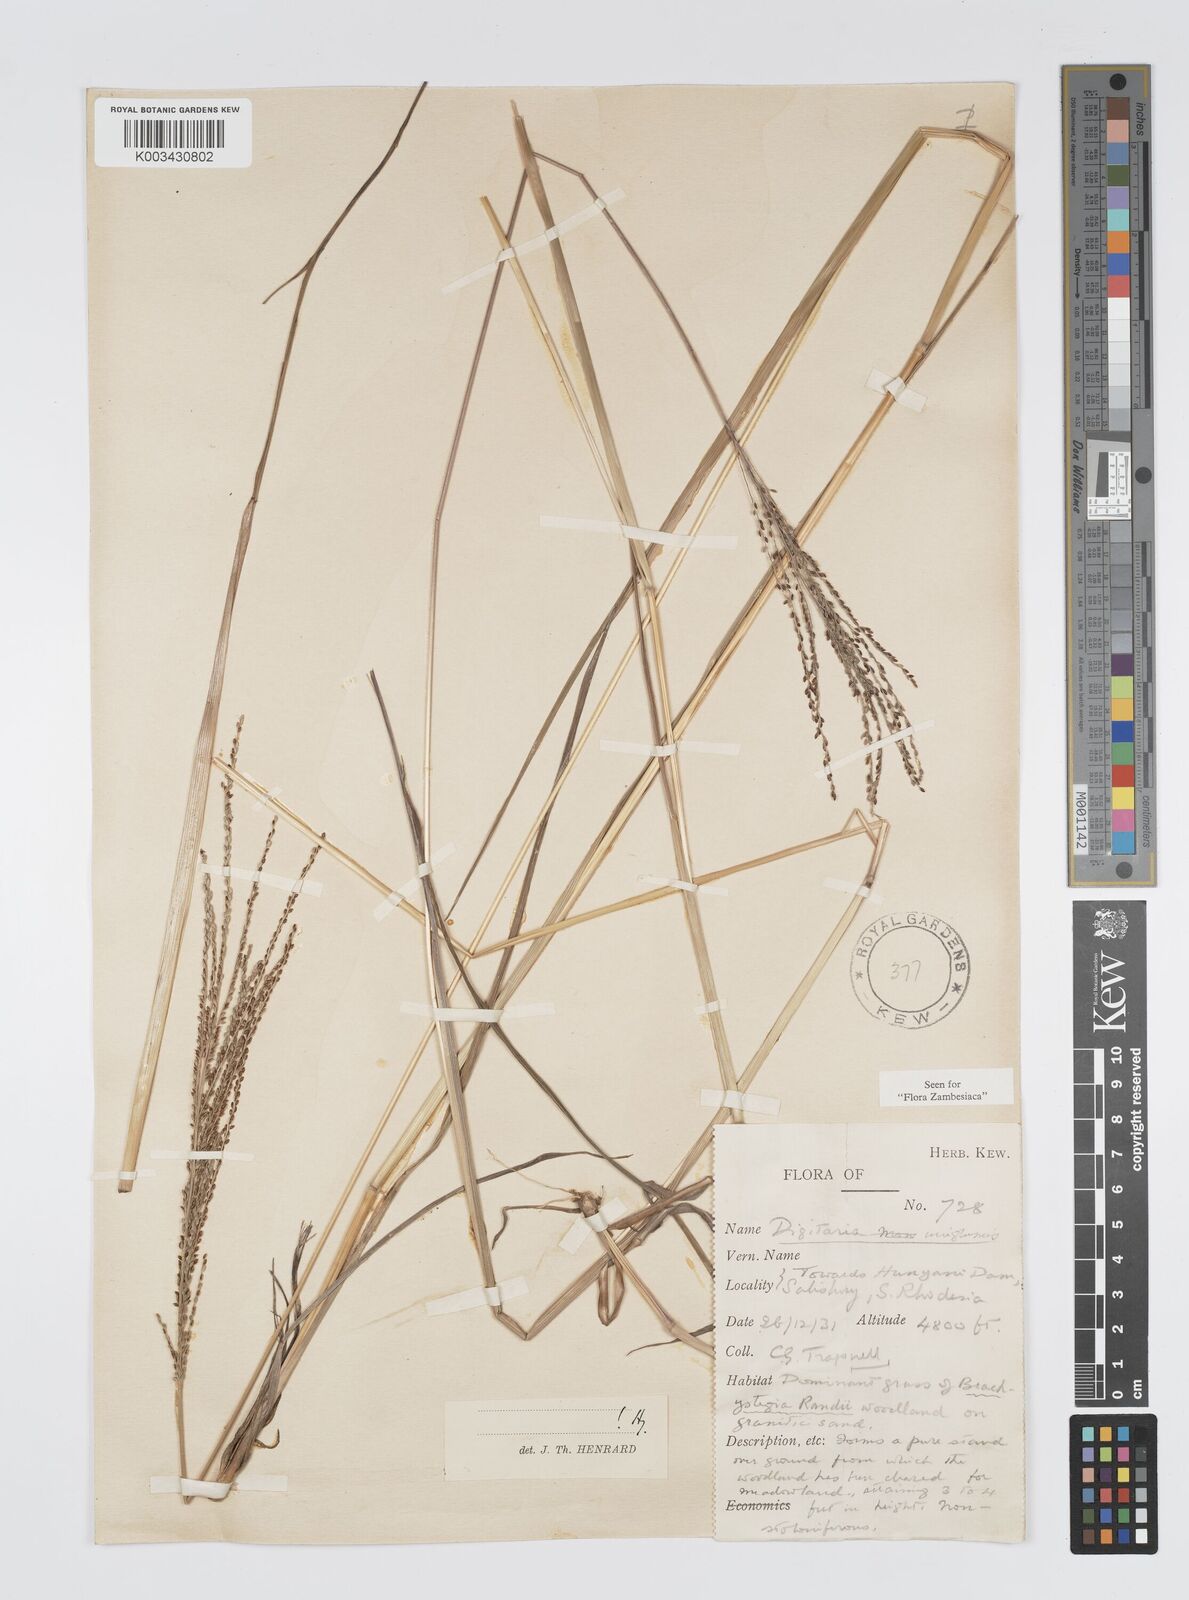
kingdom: Plantae
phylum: Tracheophyta
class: Liliopsida
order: Poales
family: Poaceae
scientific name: Poaceae
